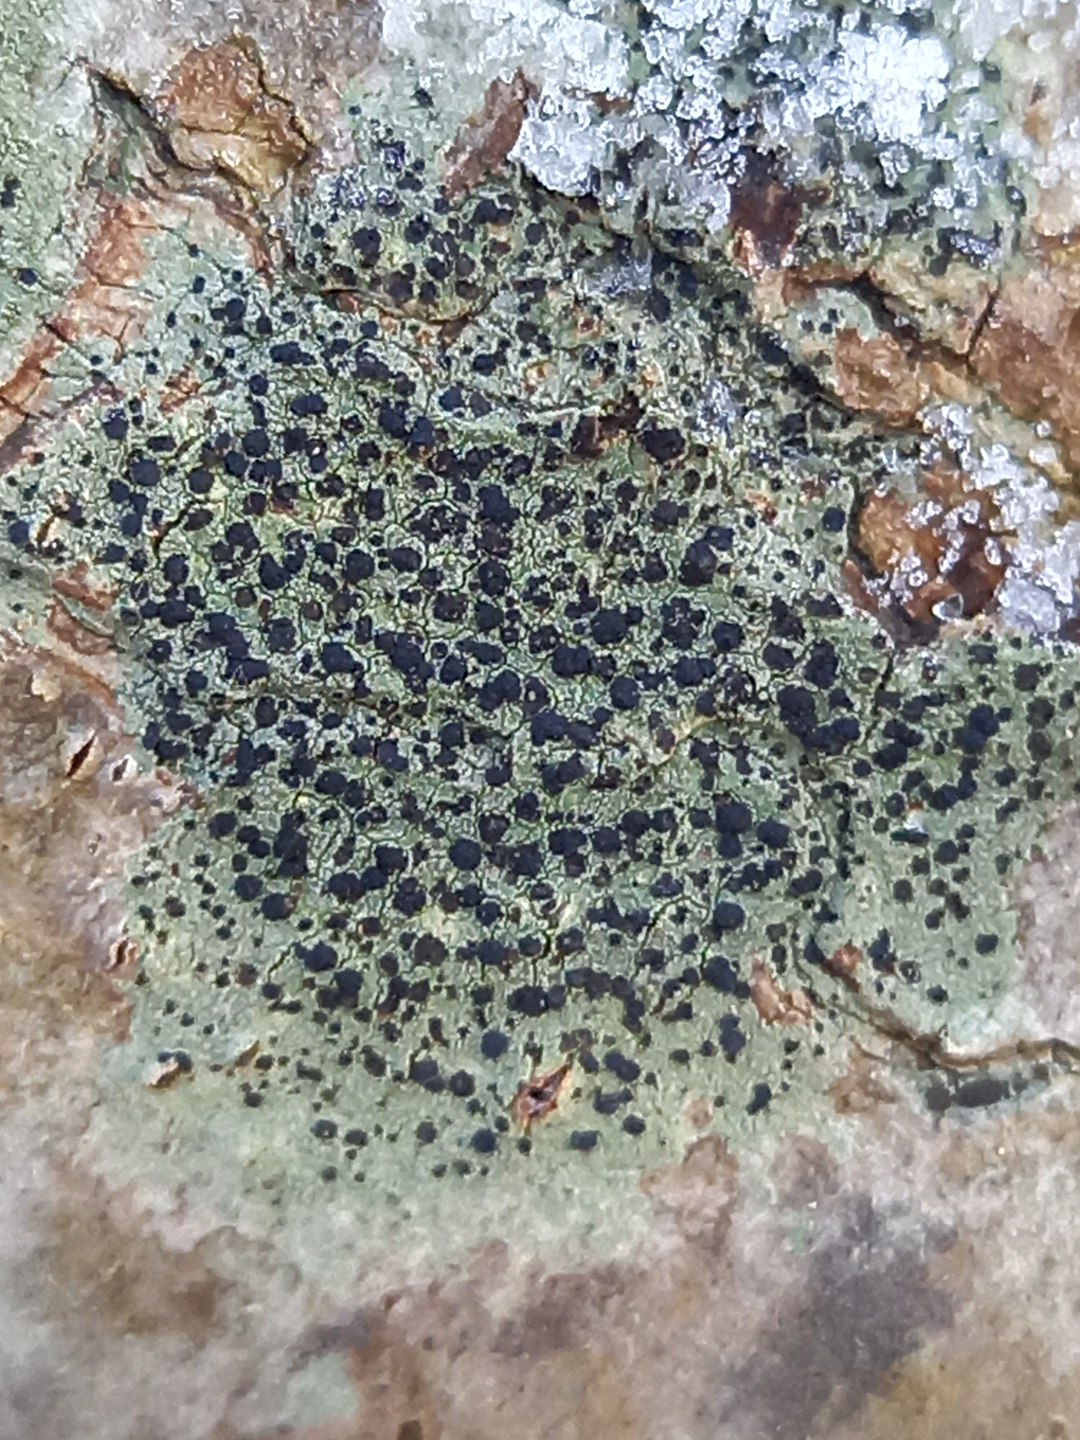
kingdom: Fungi
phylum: Ascomycota
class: Lecanoromycetes
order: Lecanorales
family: Lecanoraceae
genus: Lecidella
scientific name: Lecidella elaeochroma
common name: grågrøn skivelav
